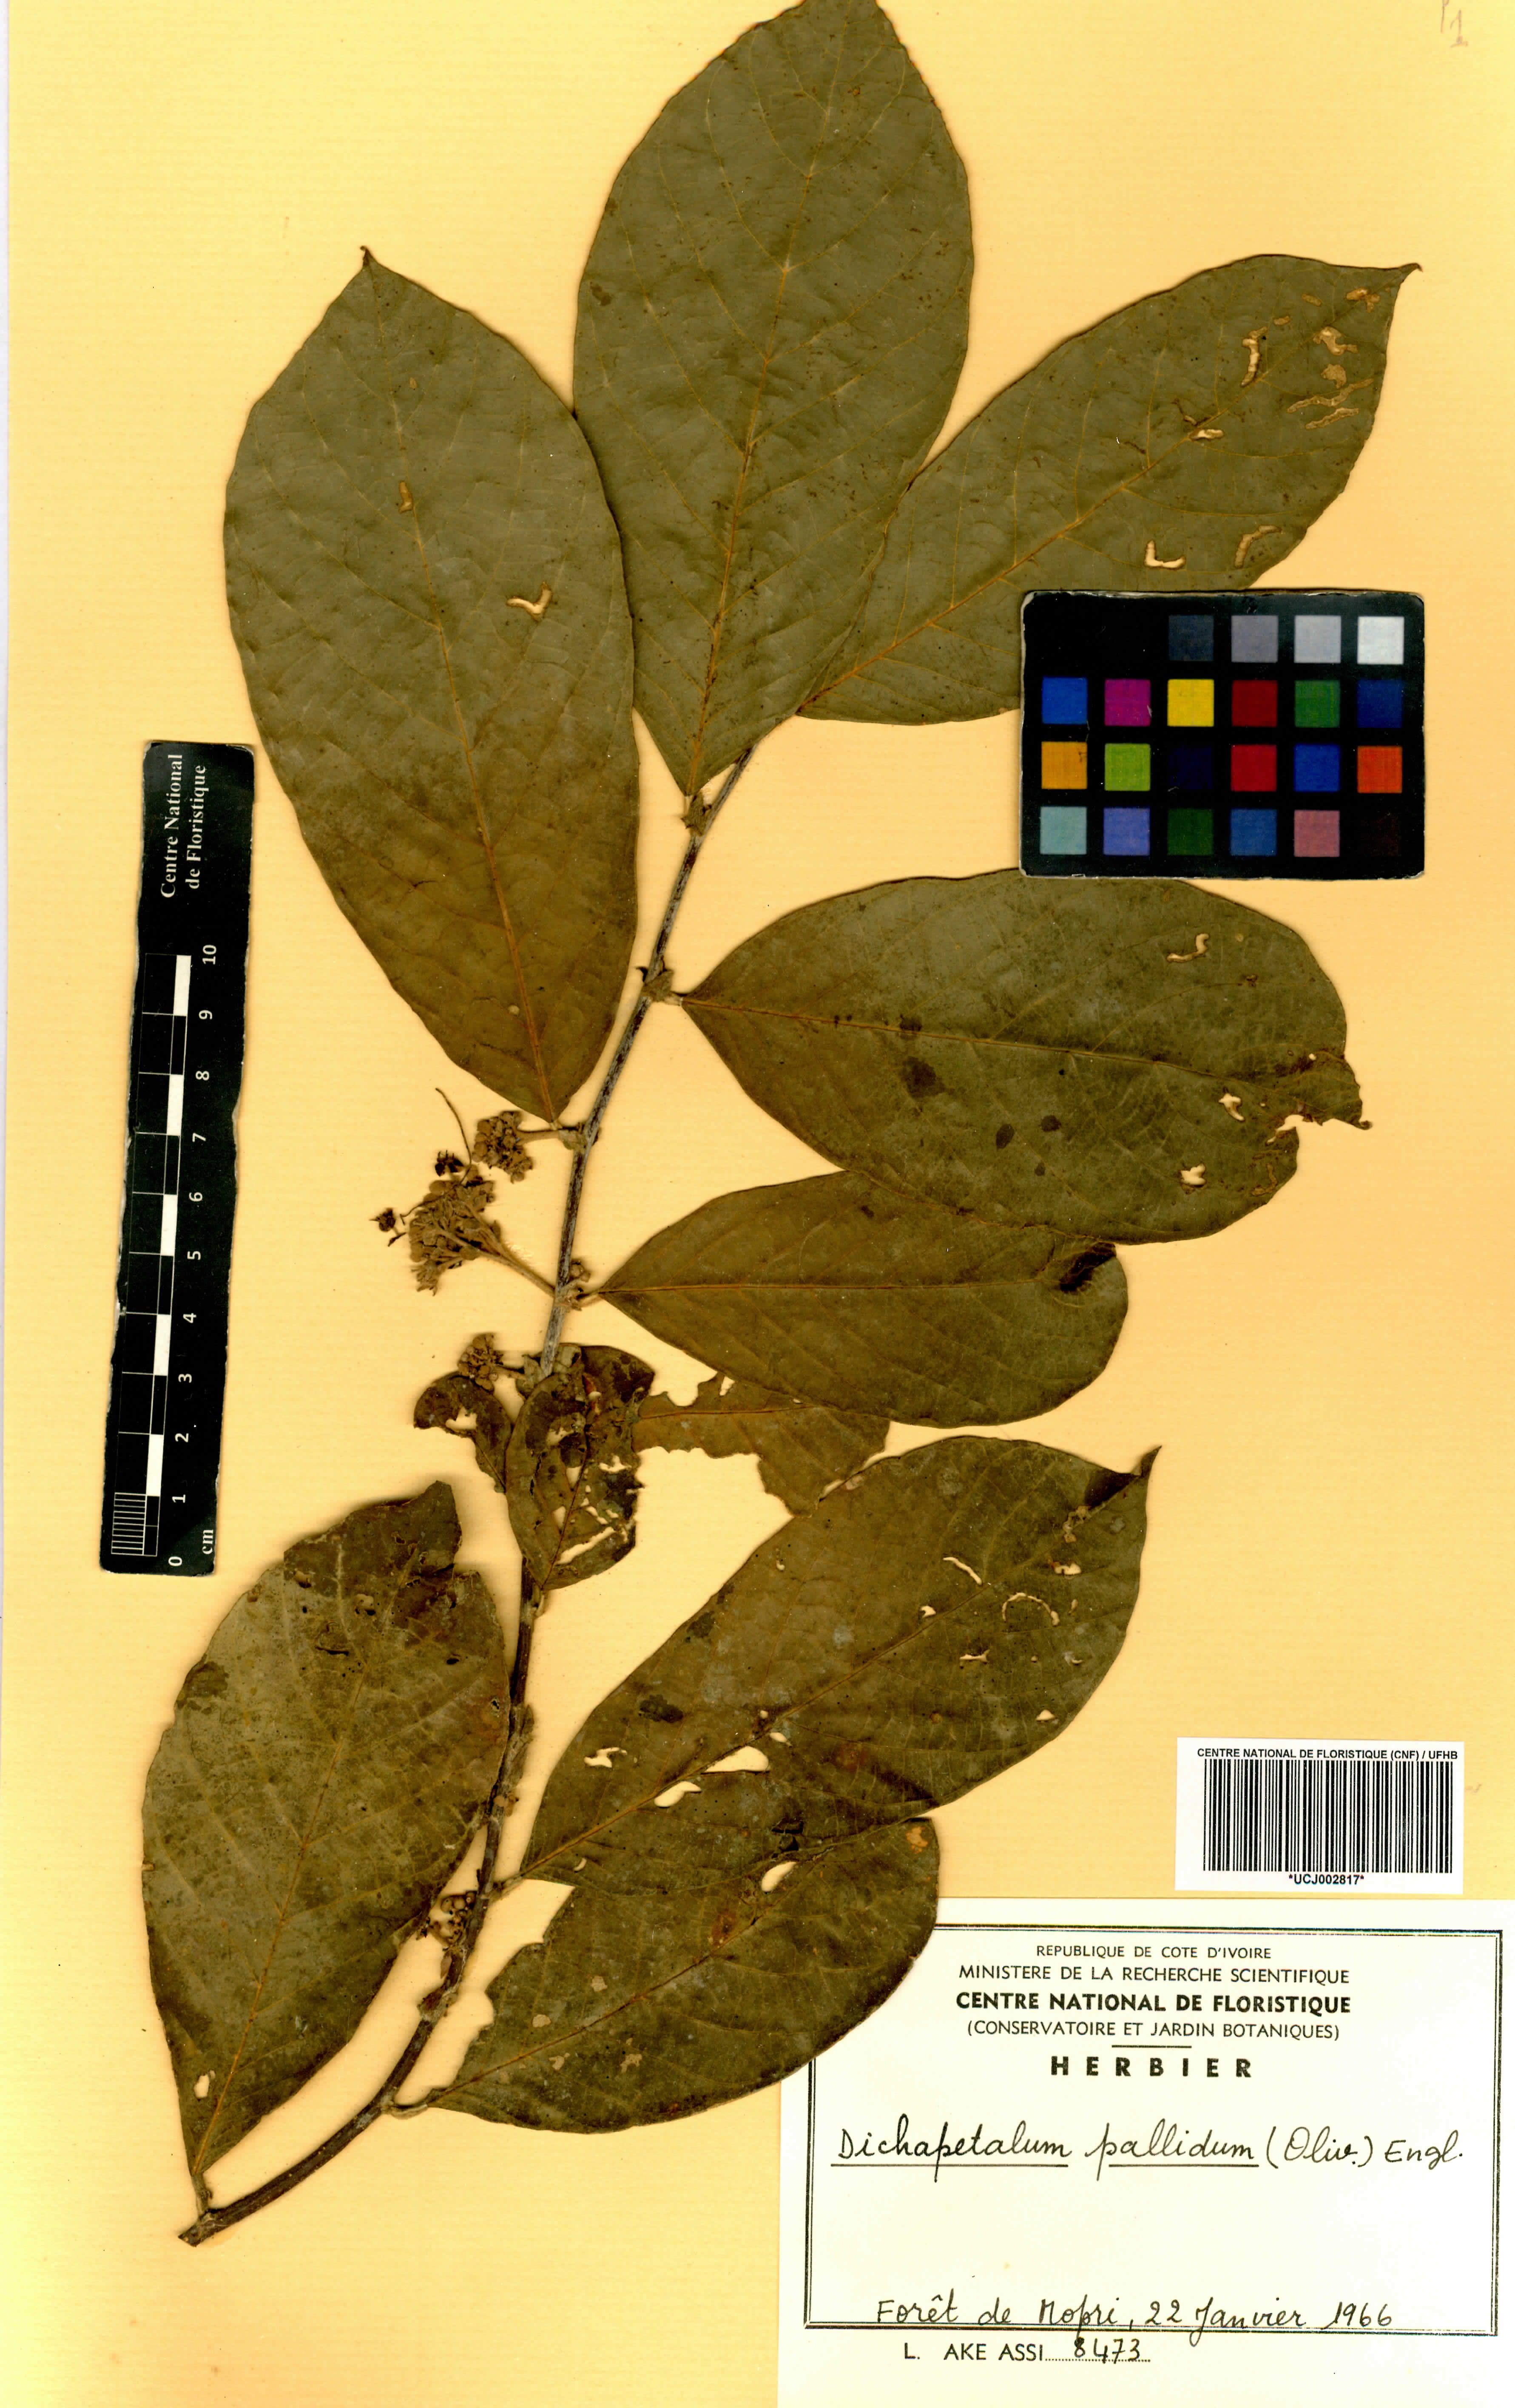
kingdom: Plantae
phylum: Tracheophyta
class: Magnoliopsida
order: Malpighiales
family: Dichapetalaceae
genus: Dichapetalum
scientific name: Dichapetalum pallidum
